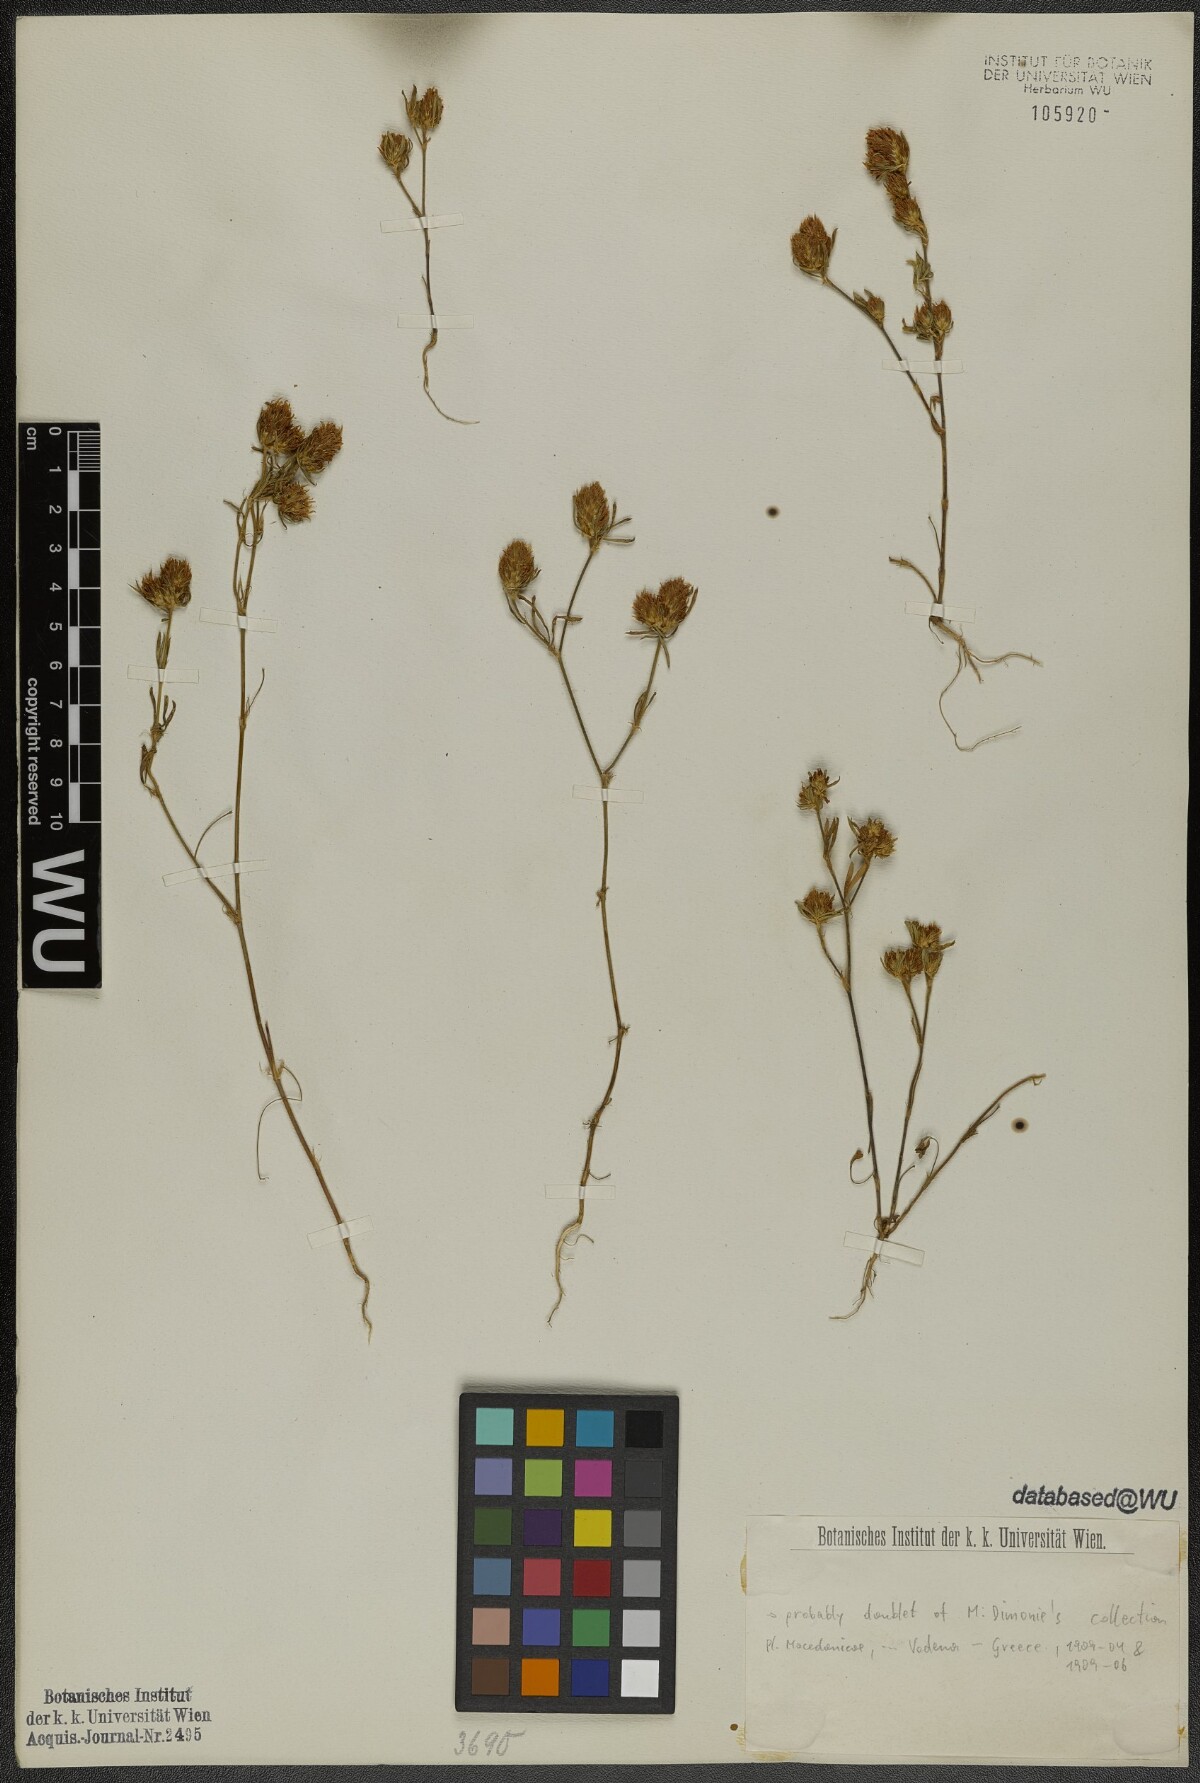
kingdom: Plantae
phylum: Tracheophyta
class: Magnoliopsida
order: Fabales
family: Fabaceae
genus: Trifolium
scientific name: Trifolium tenuifolium
